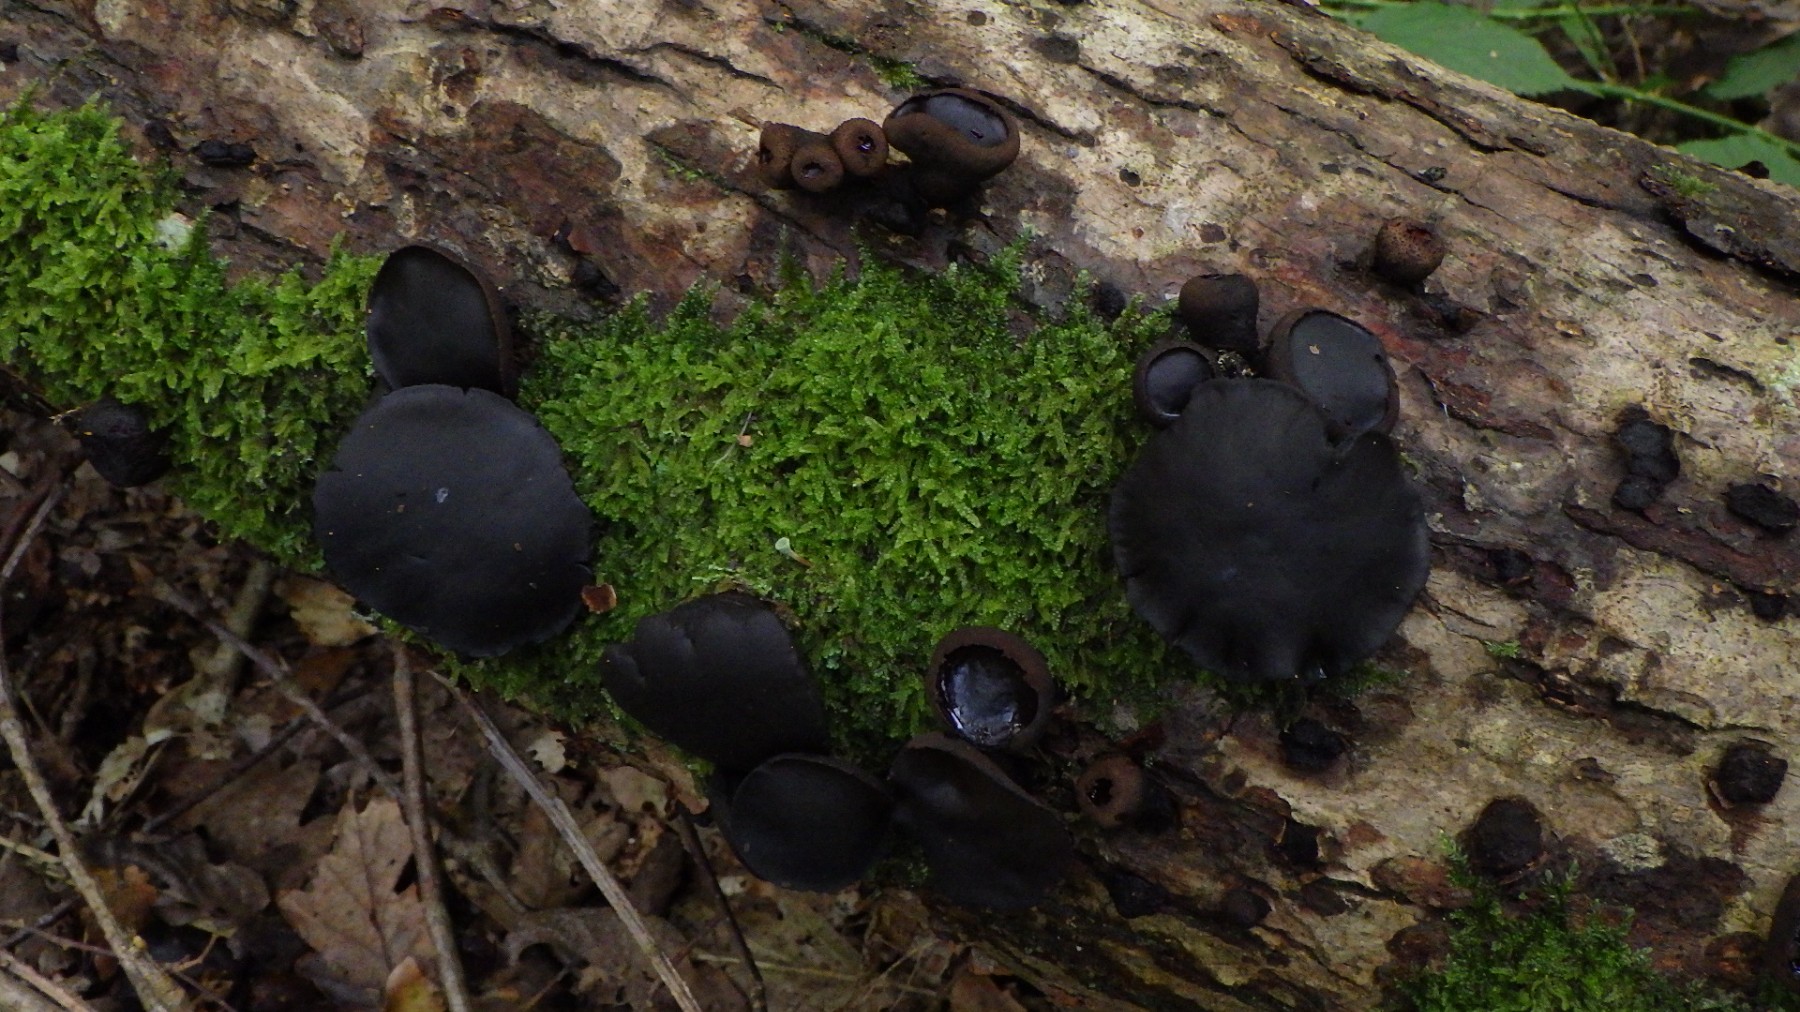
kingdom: Fungi
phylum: Ascomycota
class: Leotiomycetes
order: Phacidiales
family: Phacidiaceae
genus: Bulgaria
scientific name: Bulgaria inquinans
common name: afsmittende topsvamp
